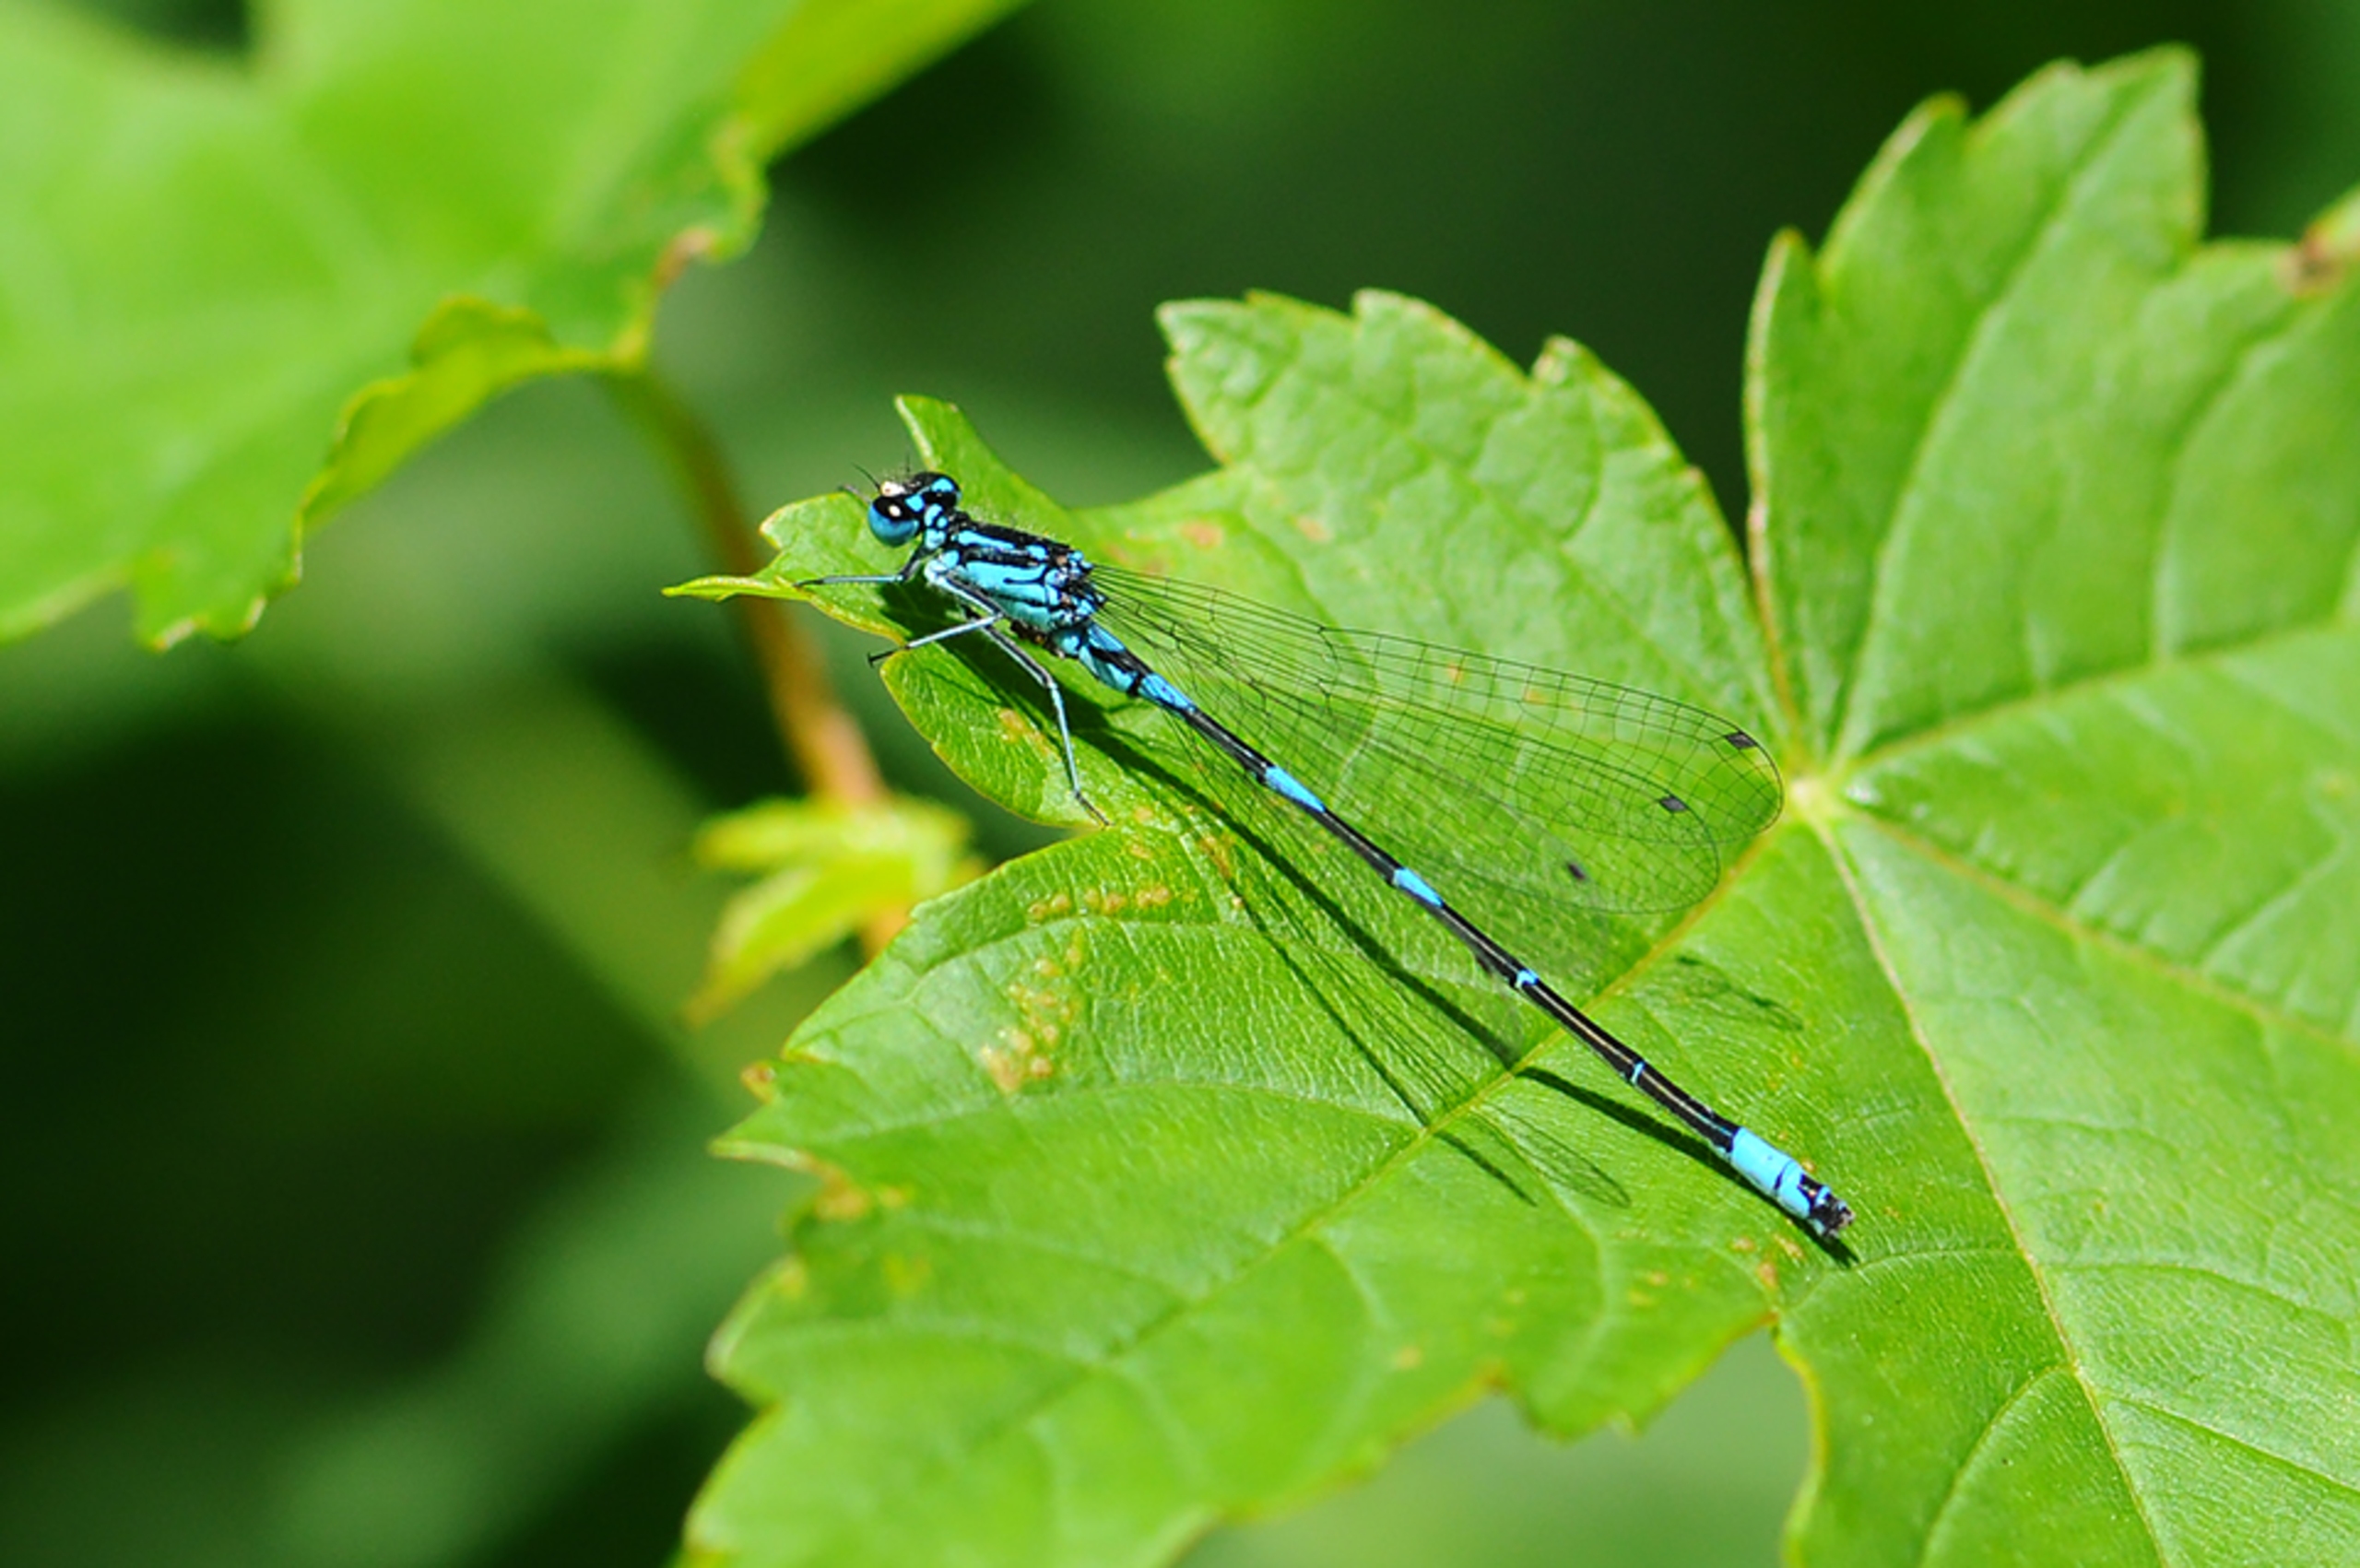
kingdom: Animalia
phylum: Arthropoda
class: Insecta
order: Odonata
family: Coenagrionidae
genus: Coenagrion
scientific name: Coenagrion pulchellum
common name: Flagermus-vandnymfe
